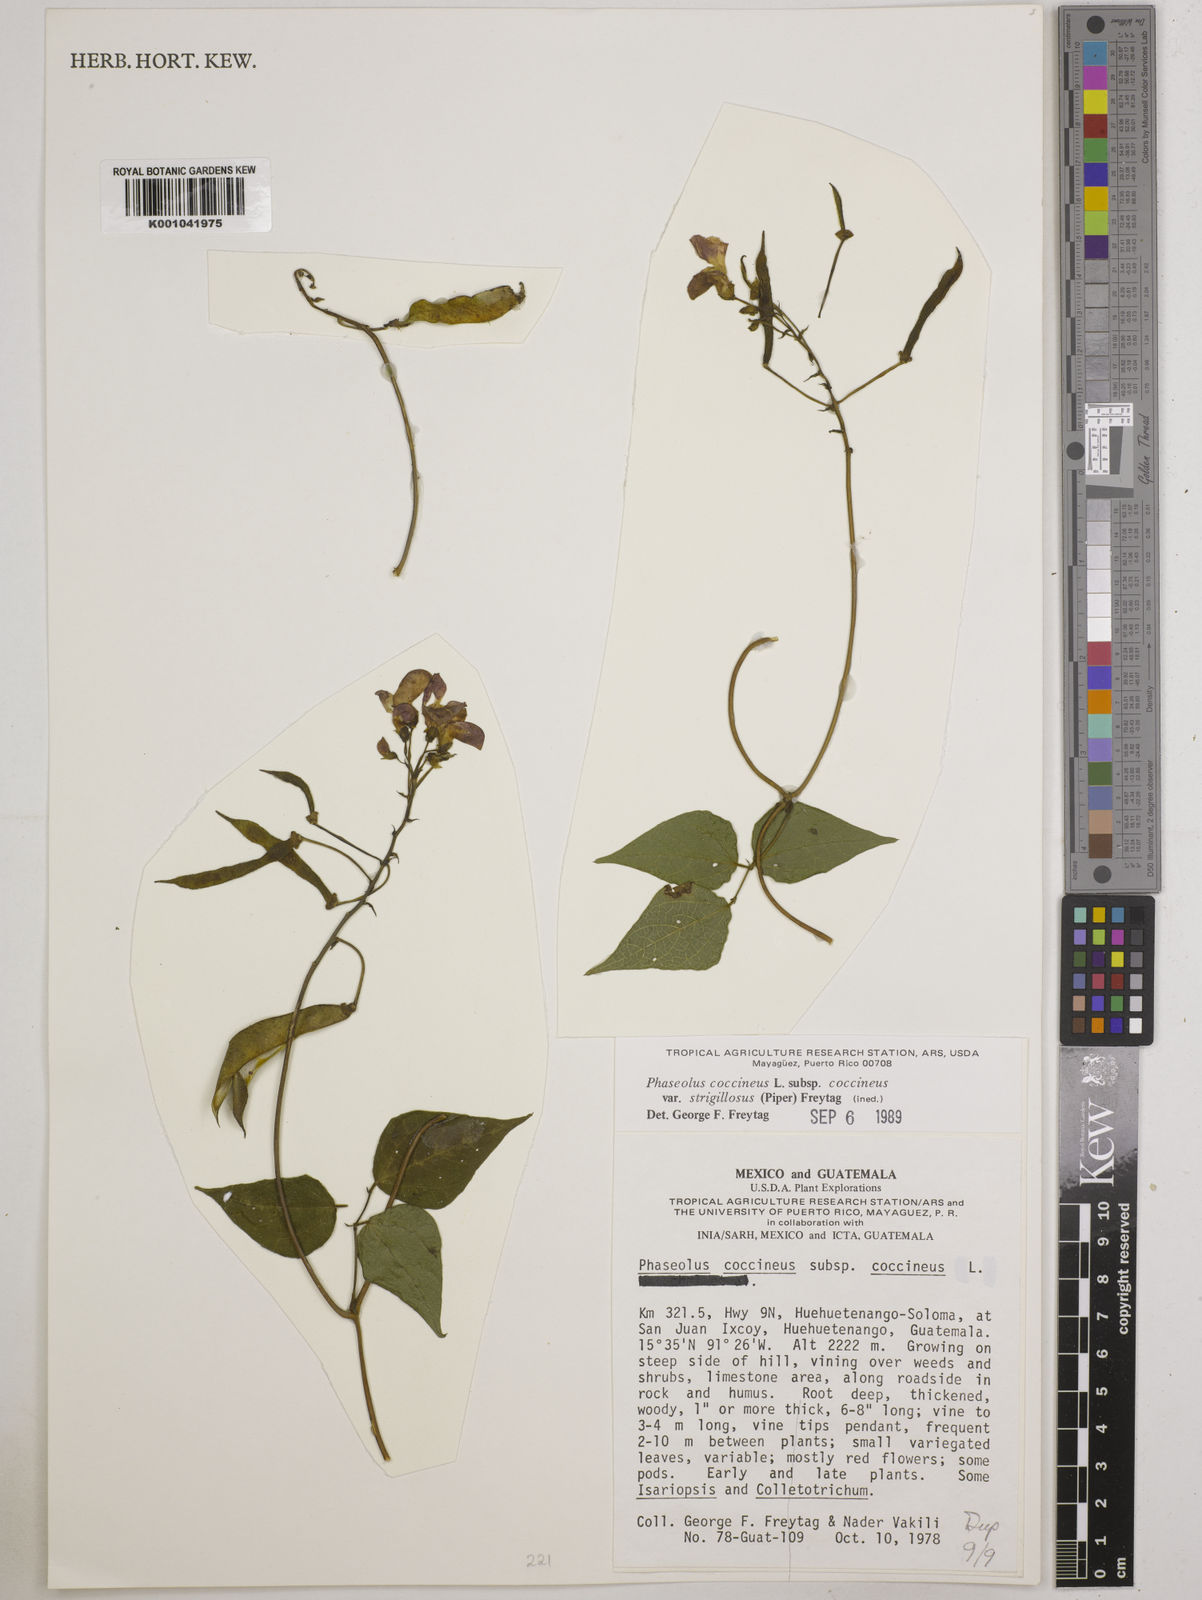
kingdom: Plantae
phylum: Tracheophyta
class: Magnoliopsida
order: Fabales
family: Fabaceae
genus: Phaseolus
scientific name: Phaseolus
